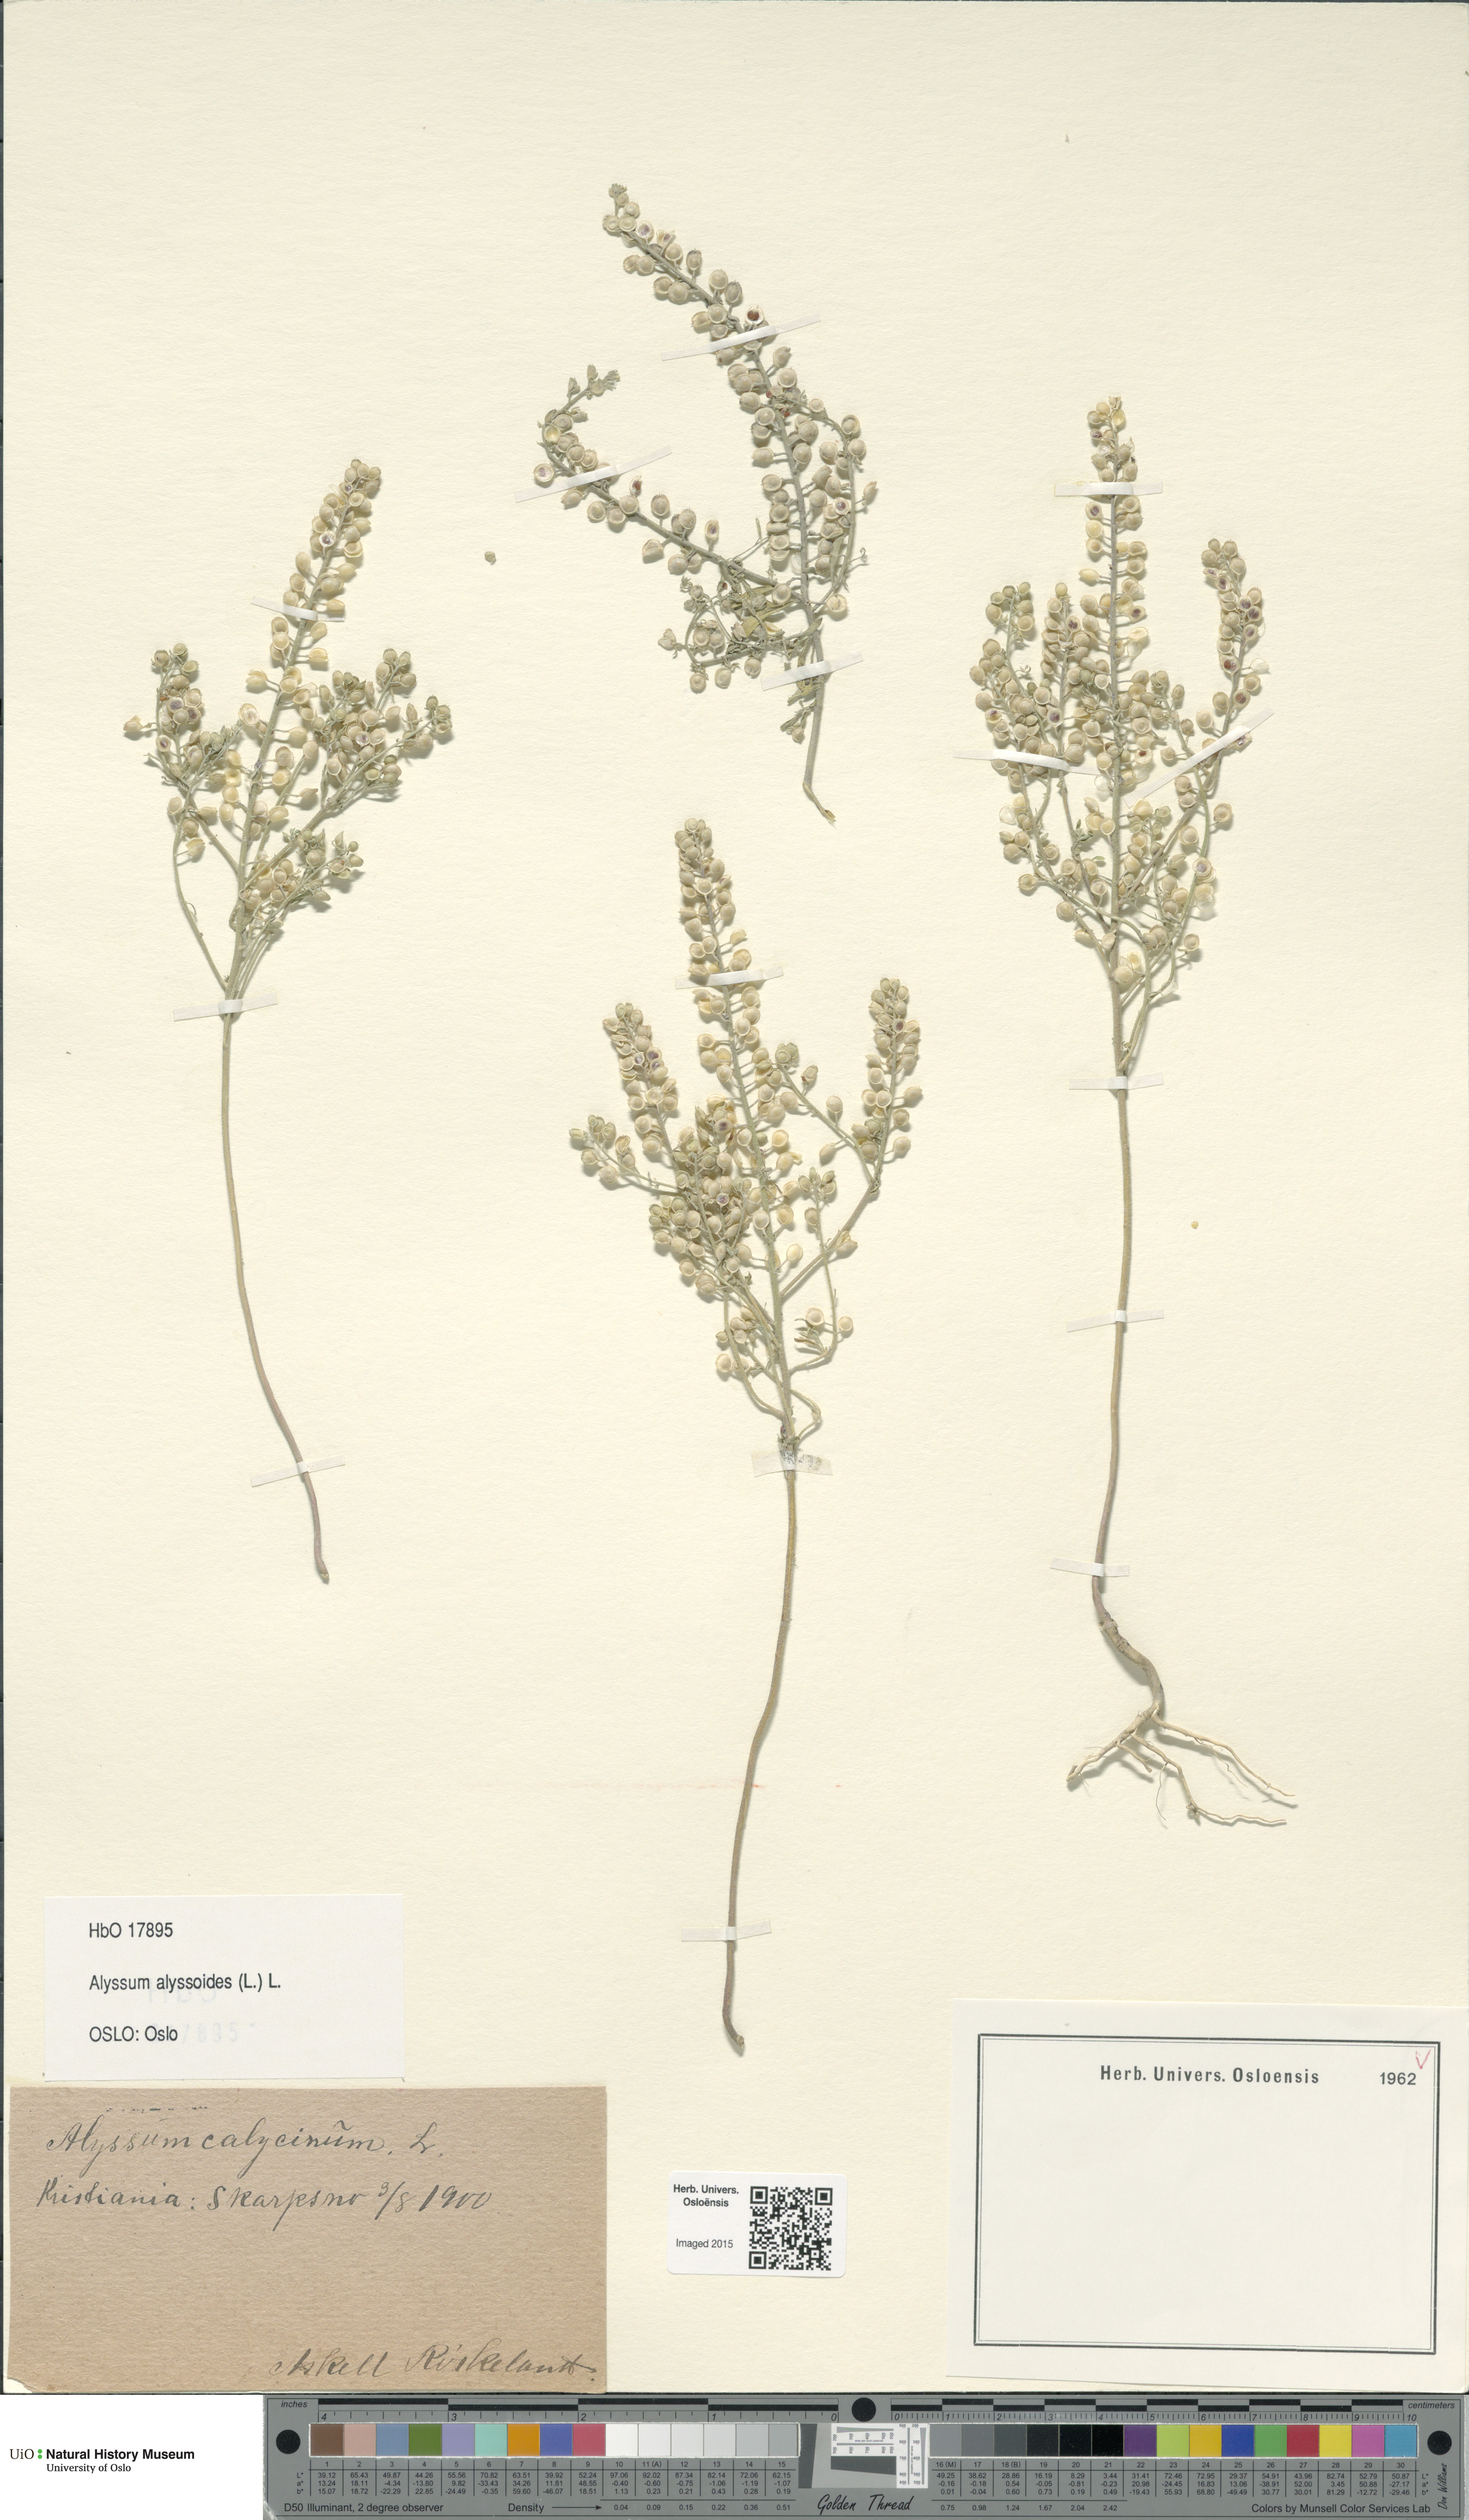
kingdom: Plantae
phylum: Tracheophyta
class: Magnoliopsida
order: Brassicales
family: Brassicaceae
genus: Alyssum
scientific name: Alyssum alyssoides
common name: Small alison
